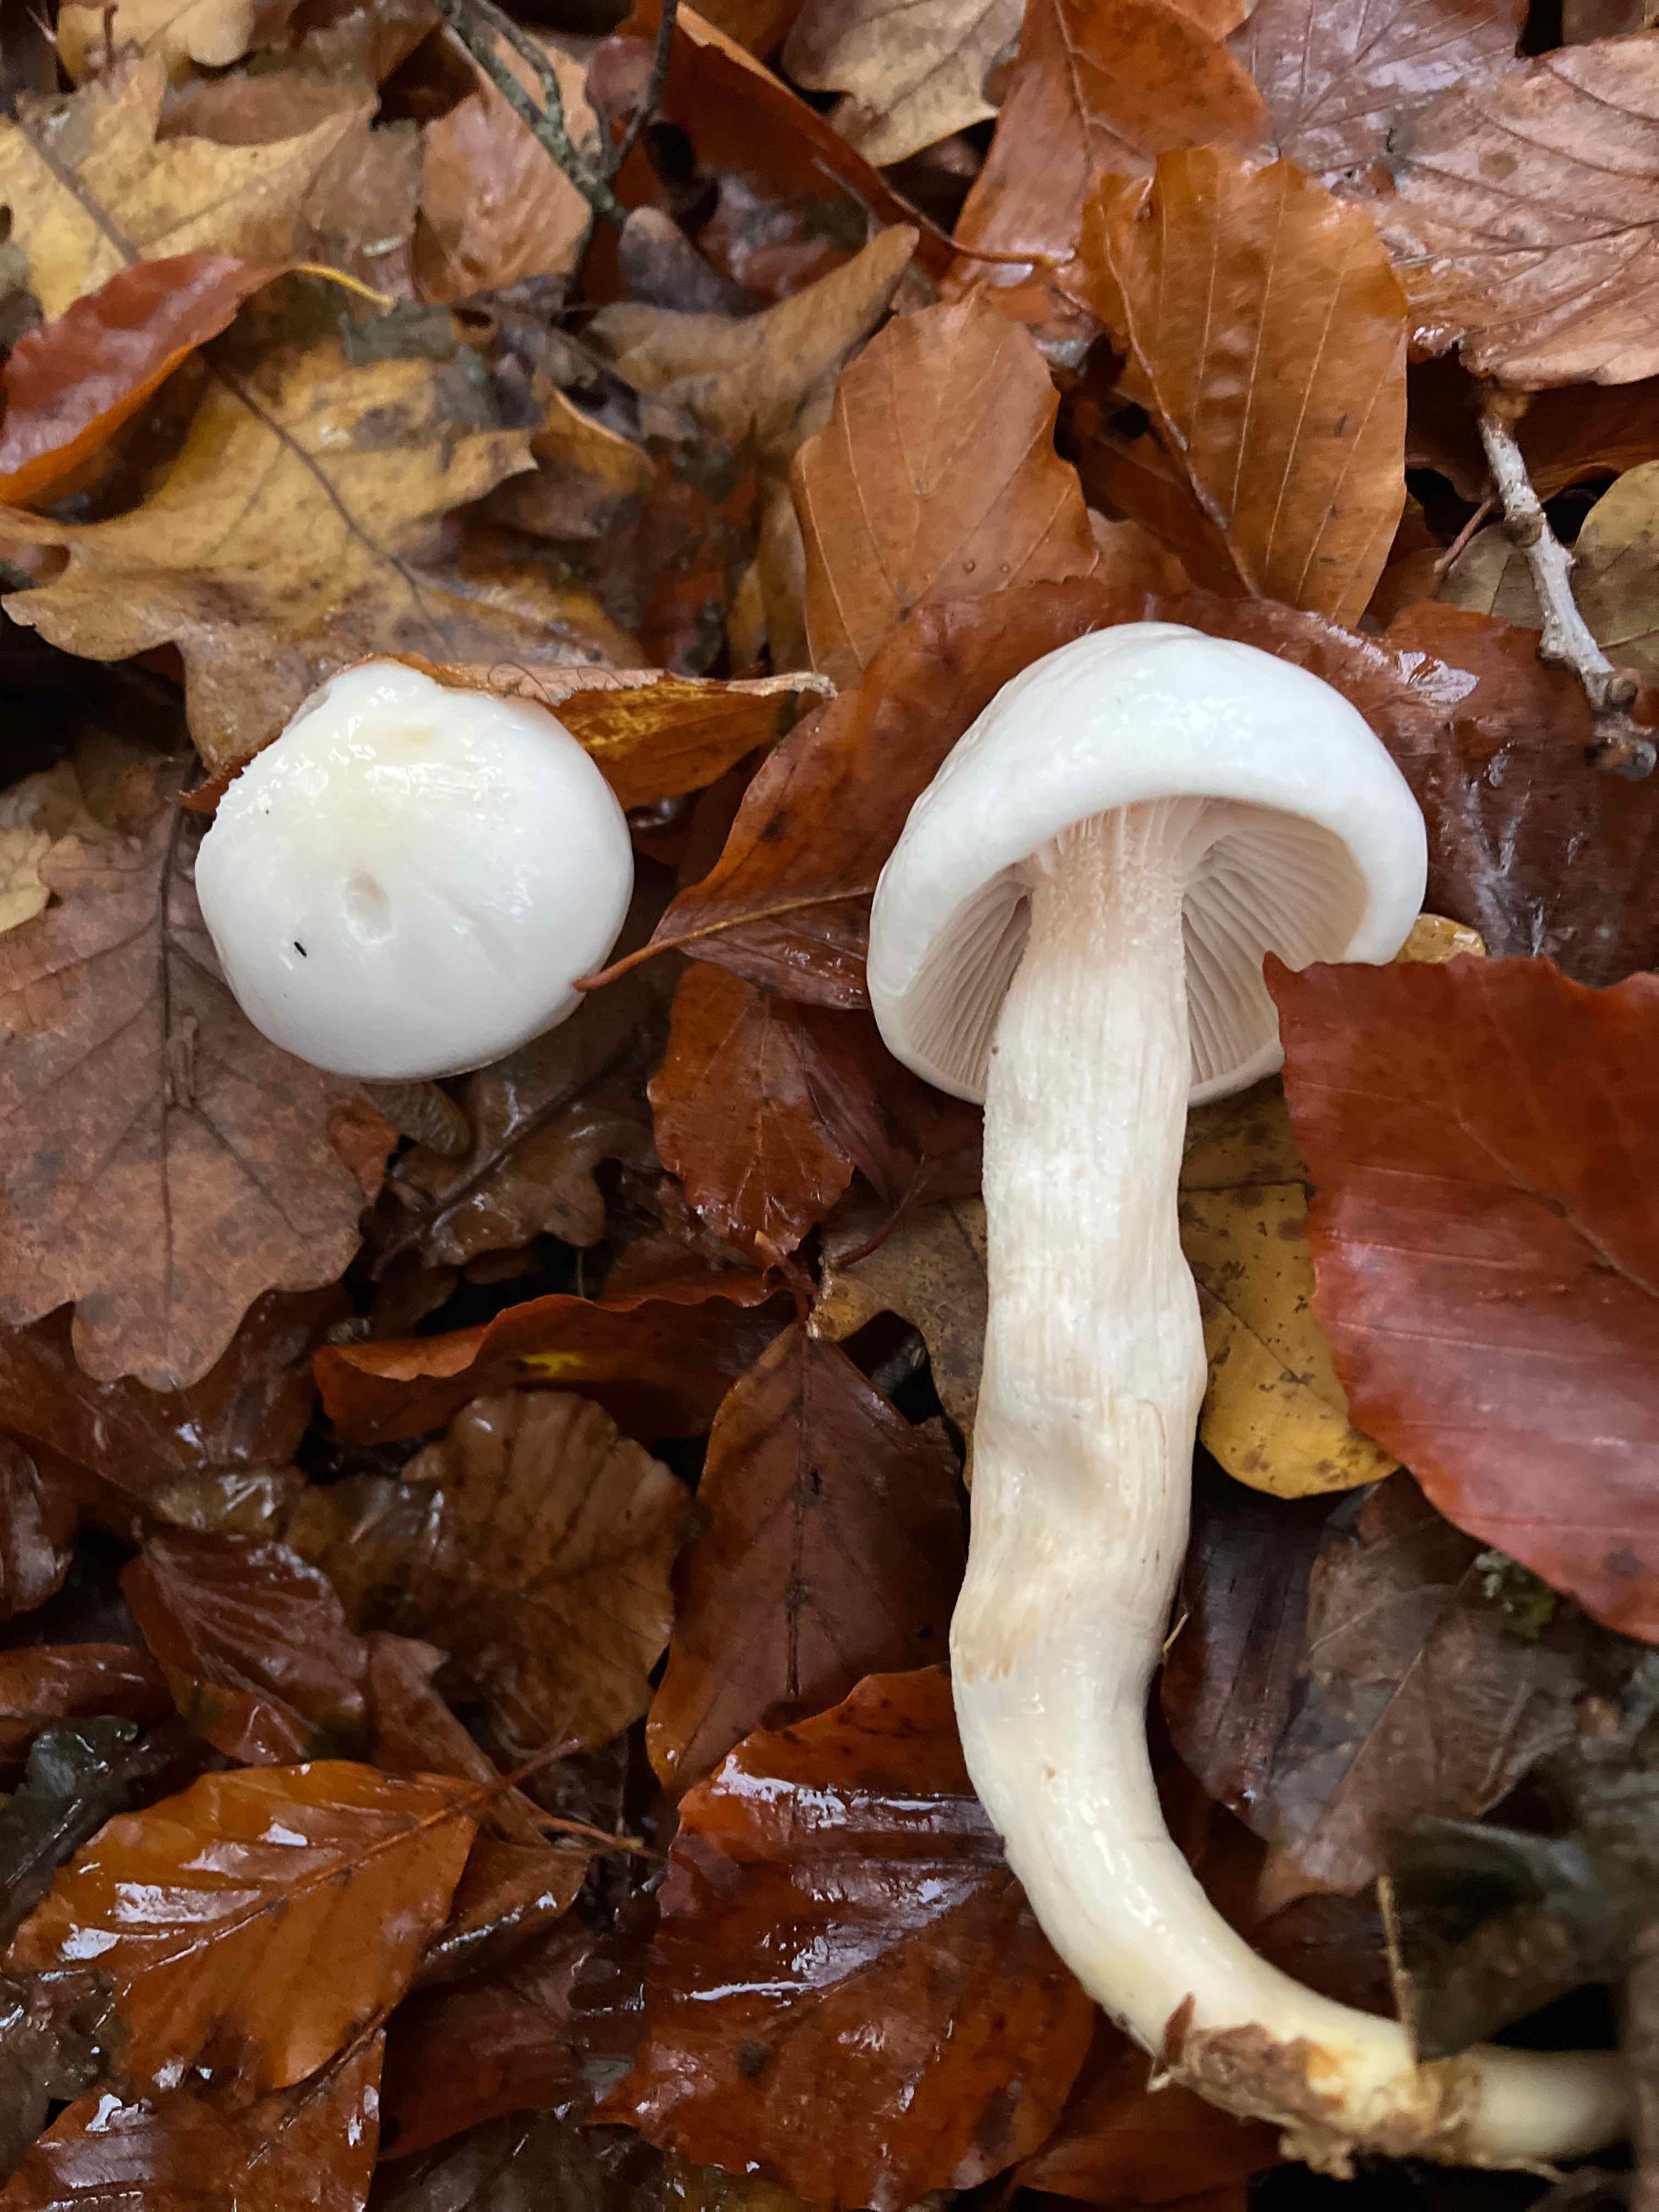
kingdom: Fungi
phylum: Basidiomycota
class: Agaricomycetes
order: Agaricales
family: Hygrophoraceae
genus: Hygrophorus
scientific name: Hygrophorus
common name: sneglehat
